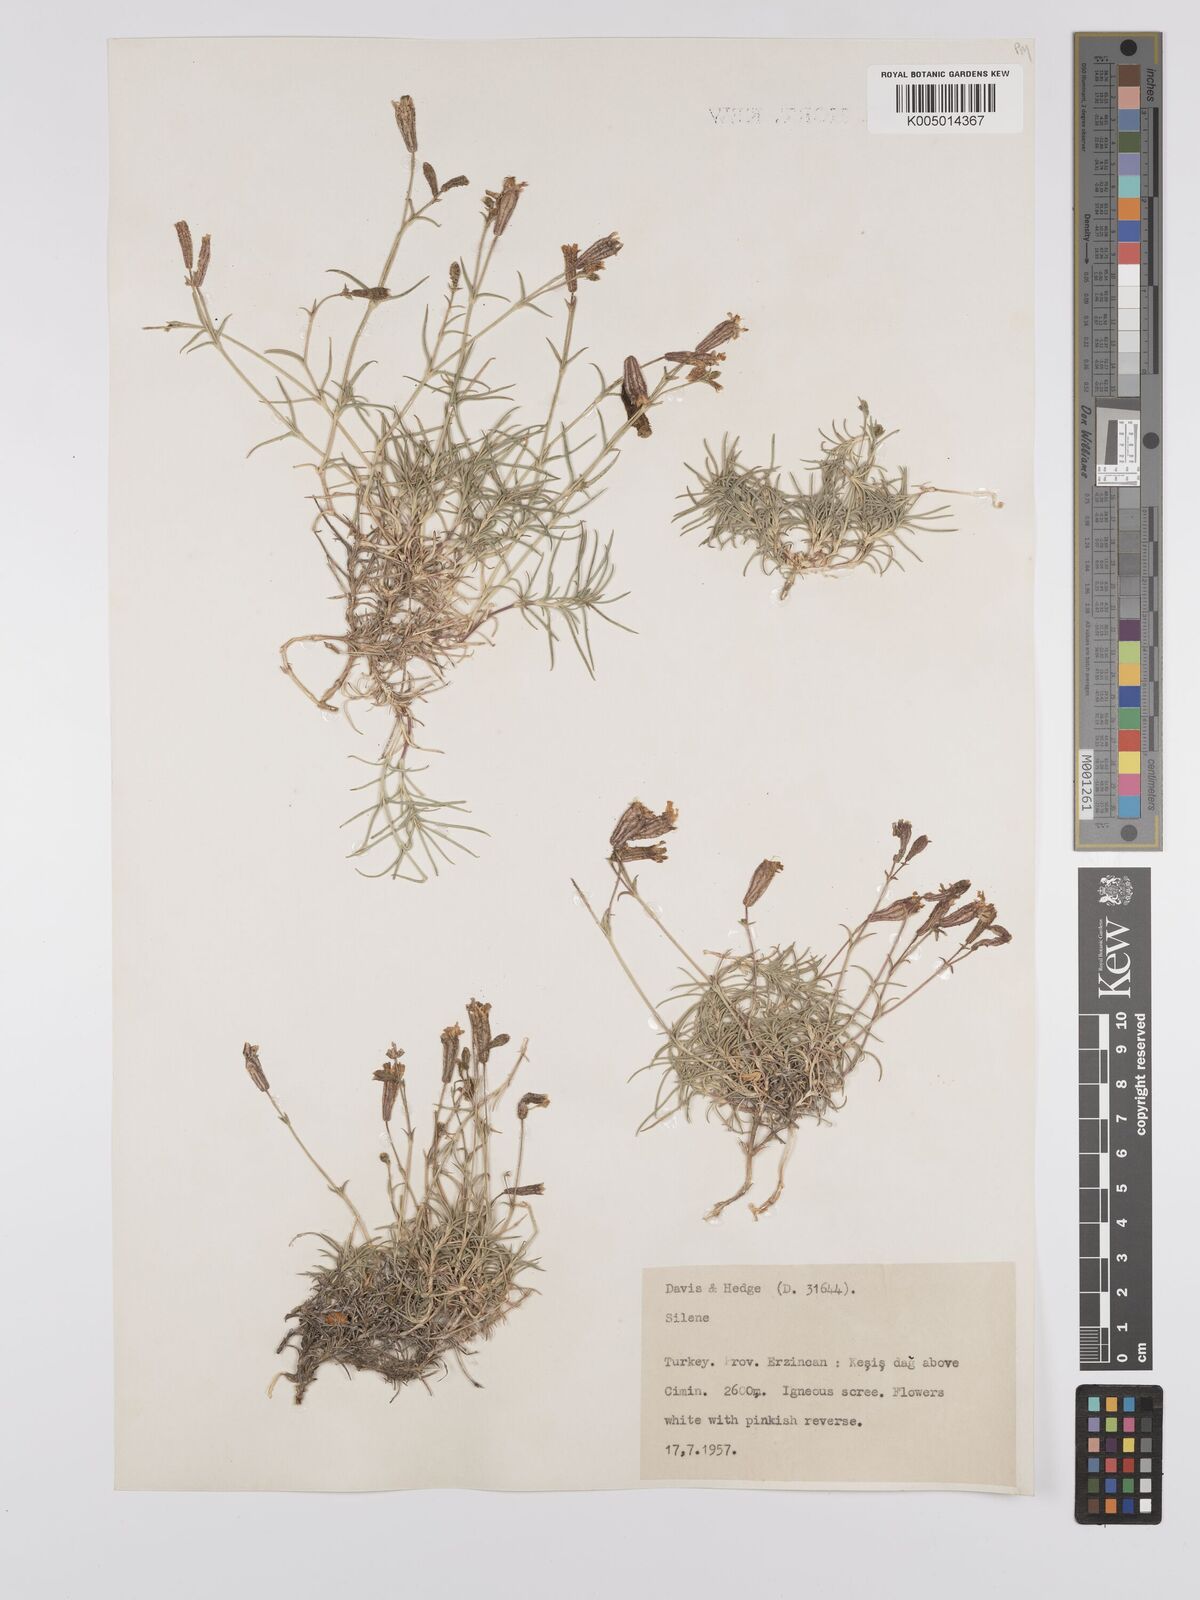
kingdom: Plantae
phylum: Tracheophyta
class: Magnoliopsida
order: Caryophyllales
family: Caryophyllaceae
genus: Silene
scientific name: Silene
